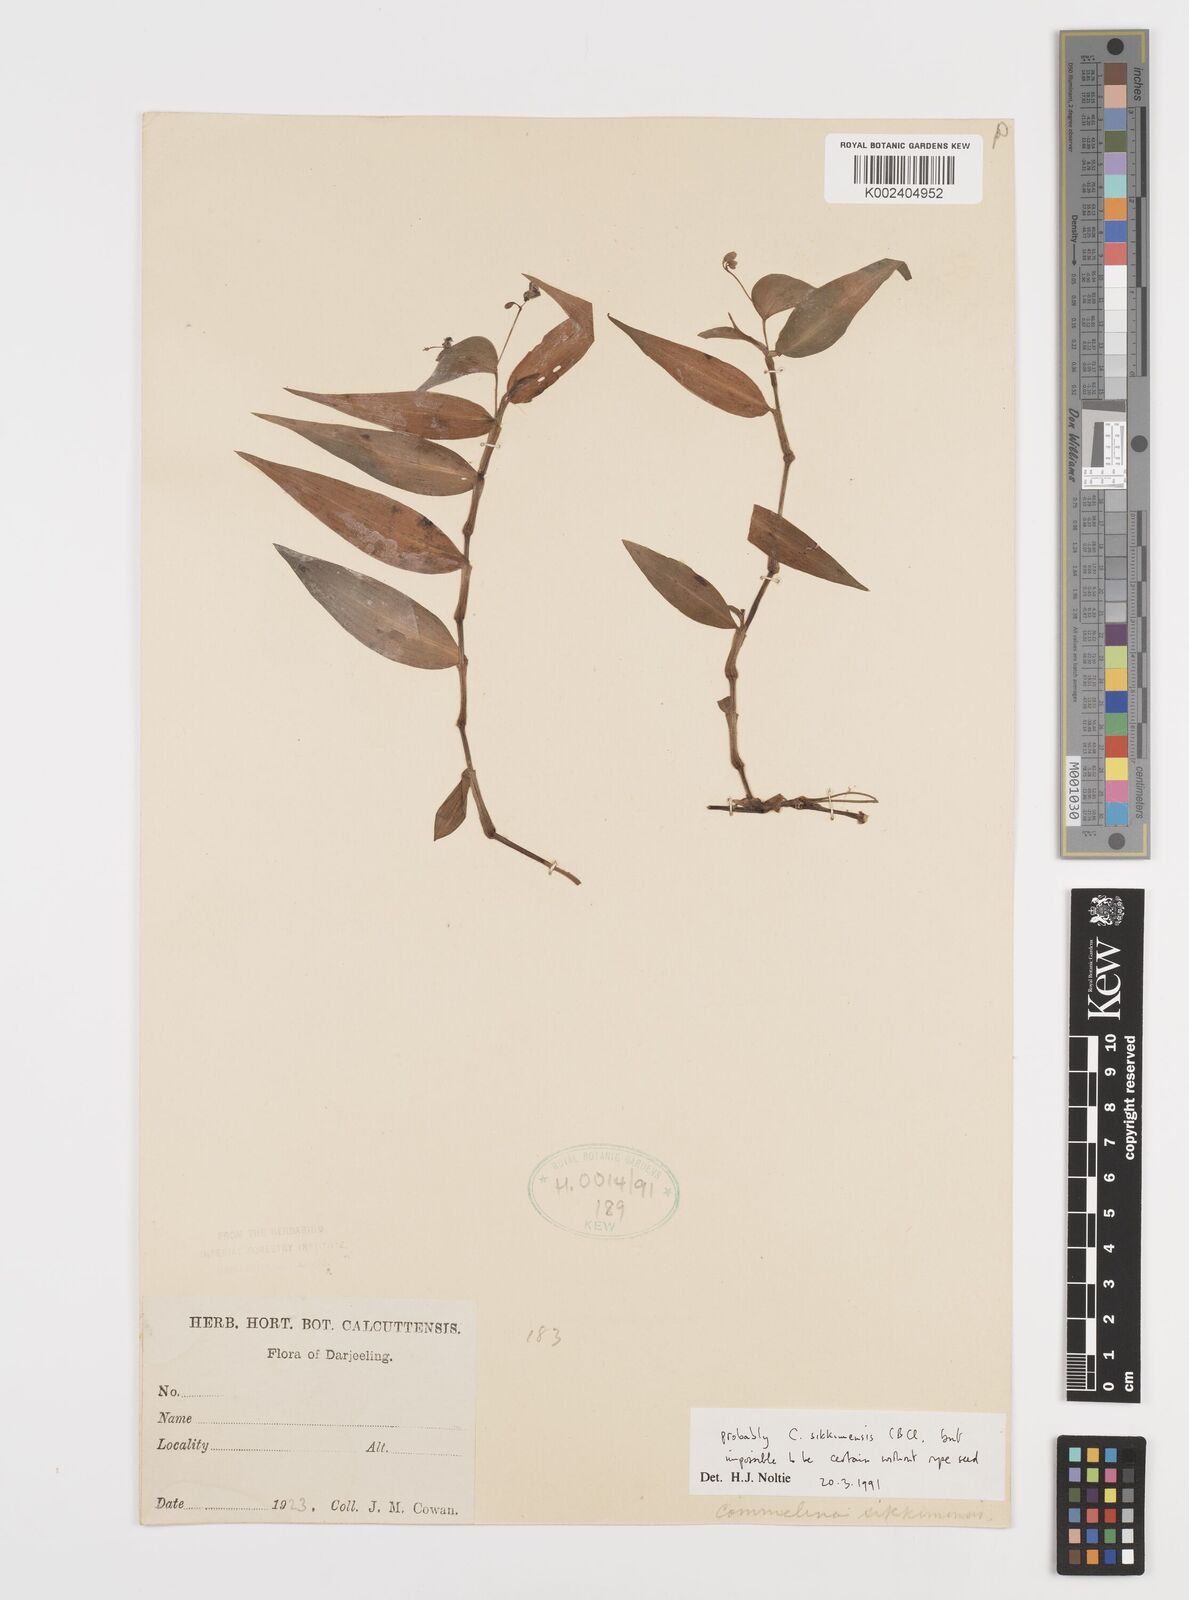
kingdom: Plantae
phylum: Tracheophyta
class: Liliopsida
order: Commelinales
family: Commelinaceae
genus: Commelina
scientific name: Commelina sikkimensis
